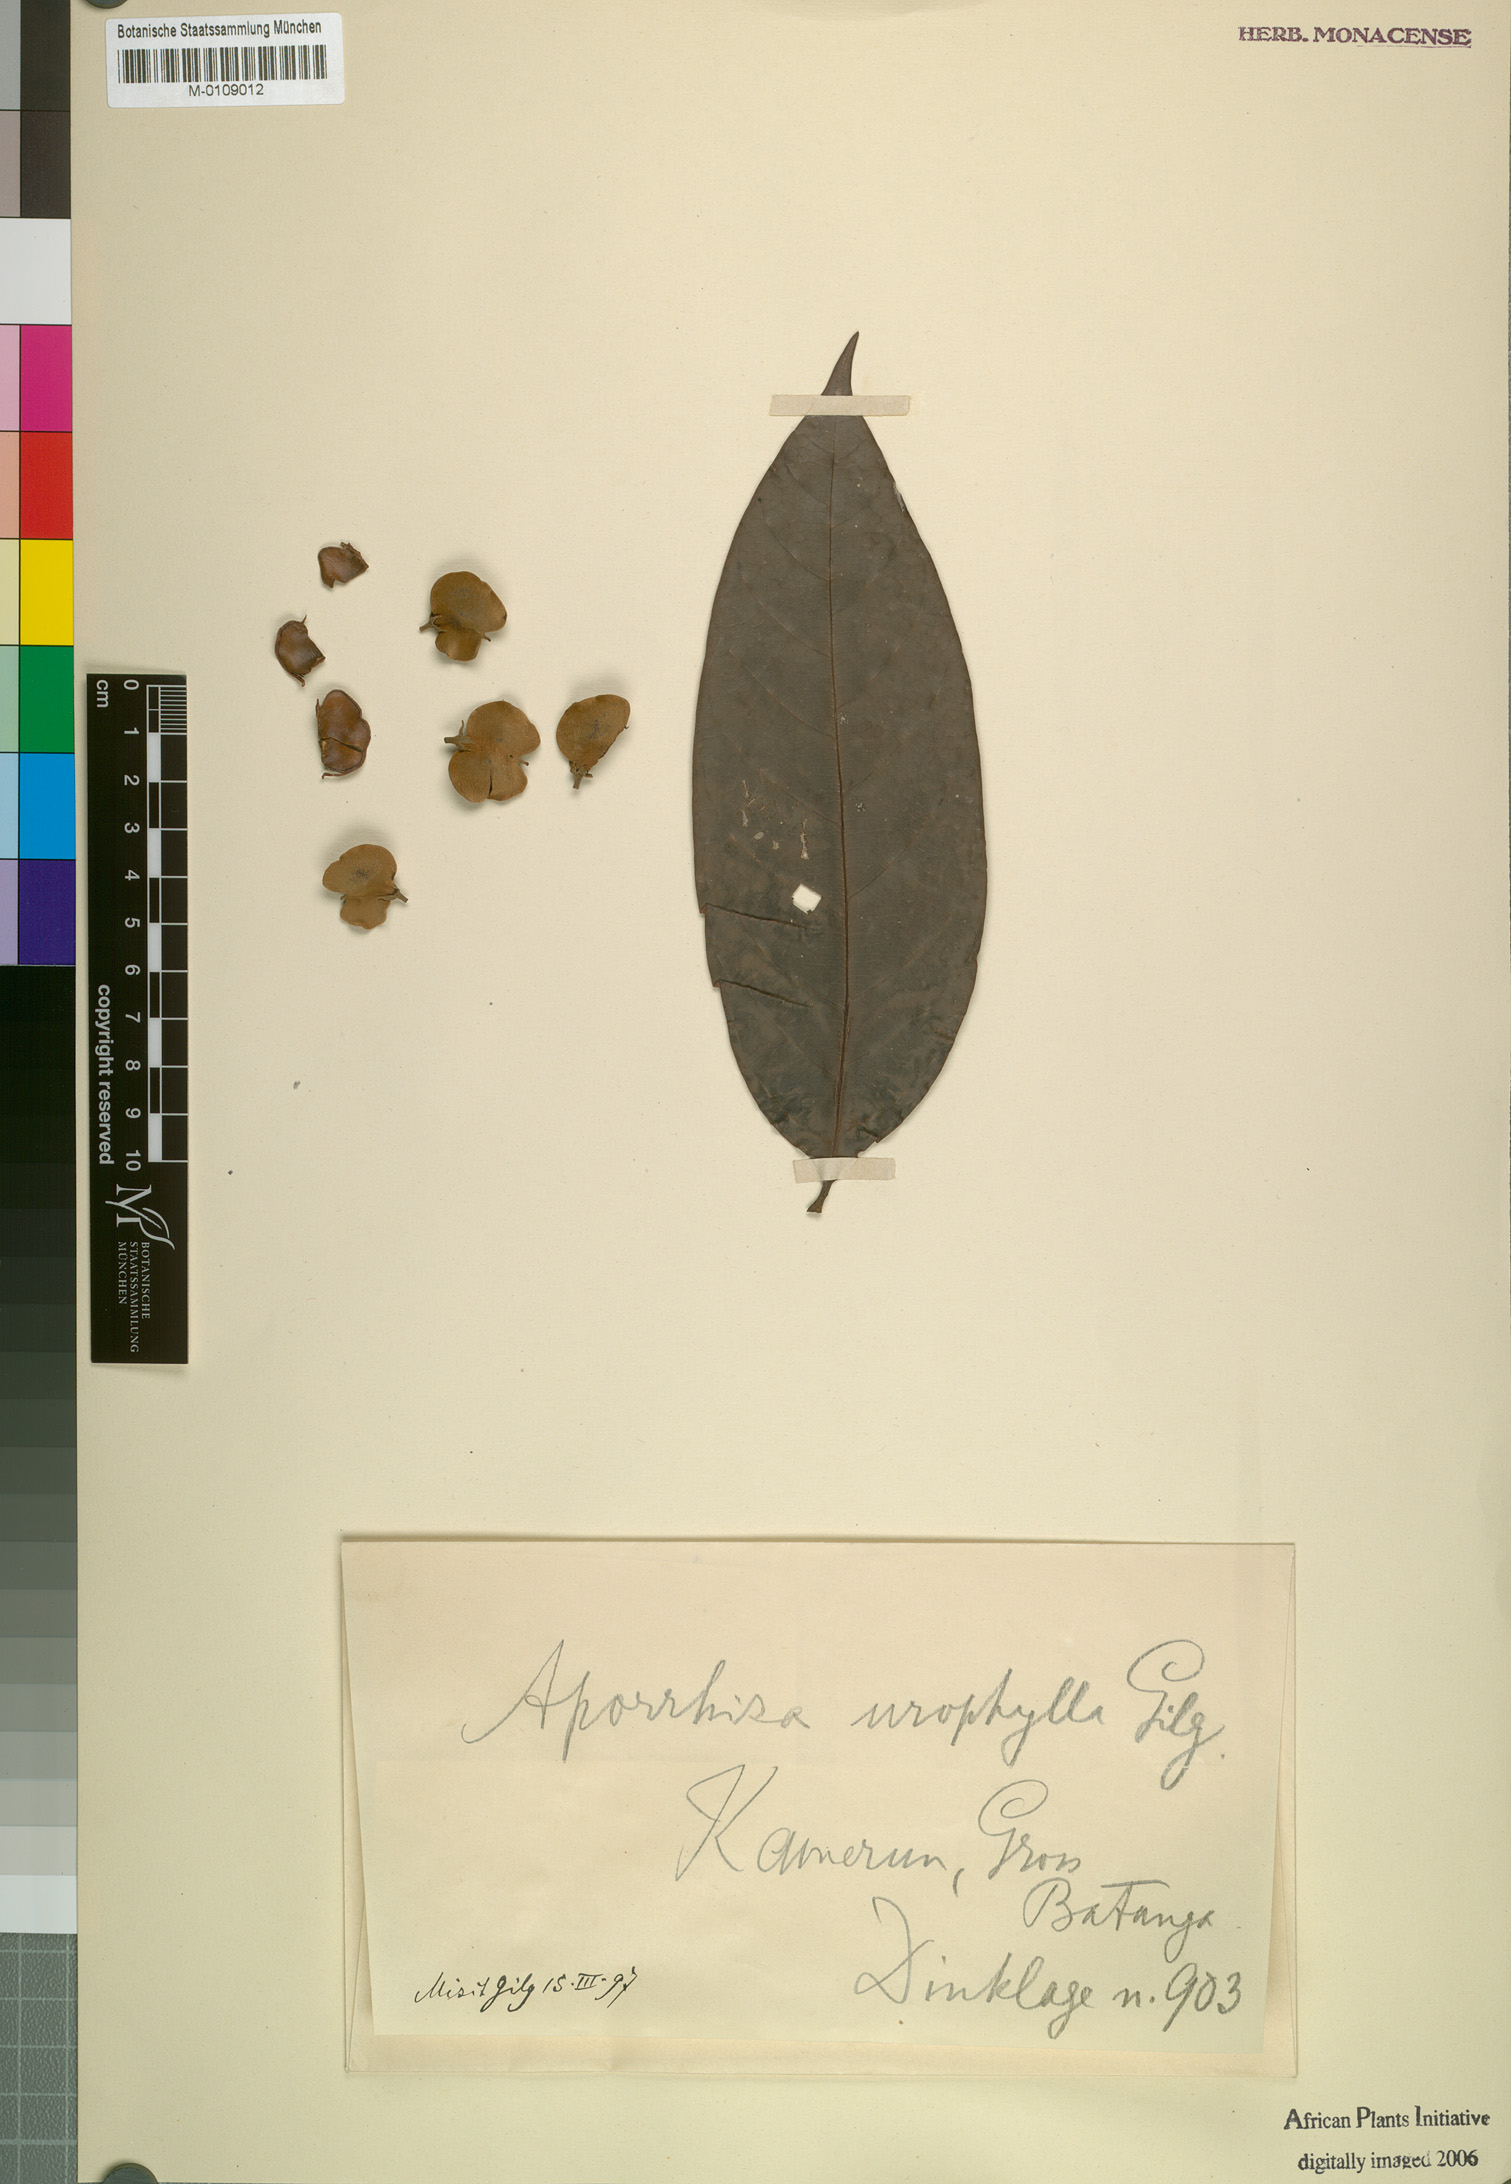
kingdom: Plantae
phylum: Tracheophyta
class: Magnoliopsida
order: Sapindales
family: Sapindaceae
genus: Aporrhiza
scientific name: Aporrhiza urophylla
